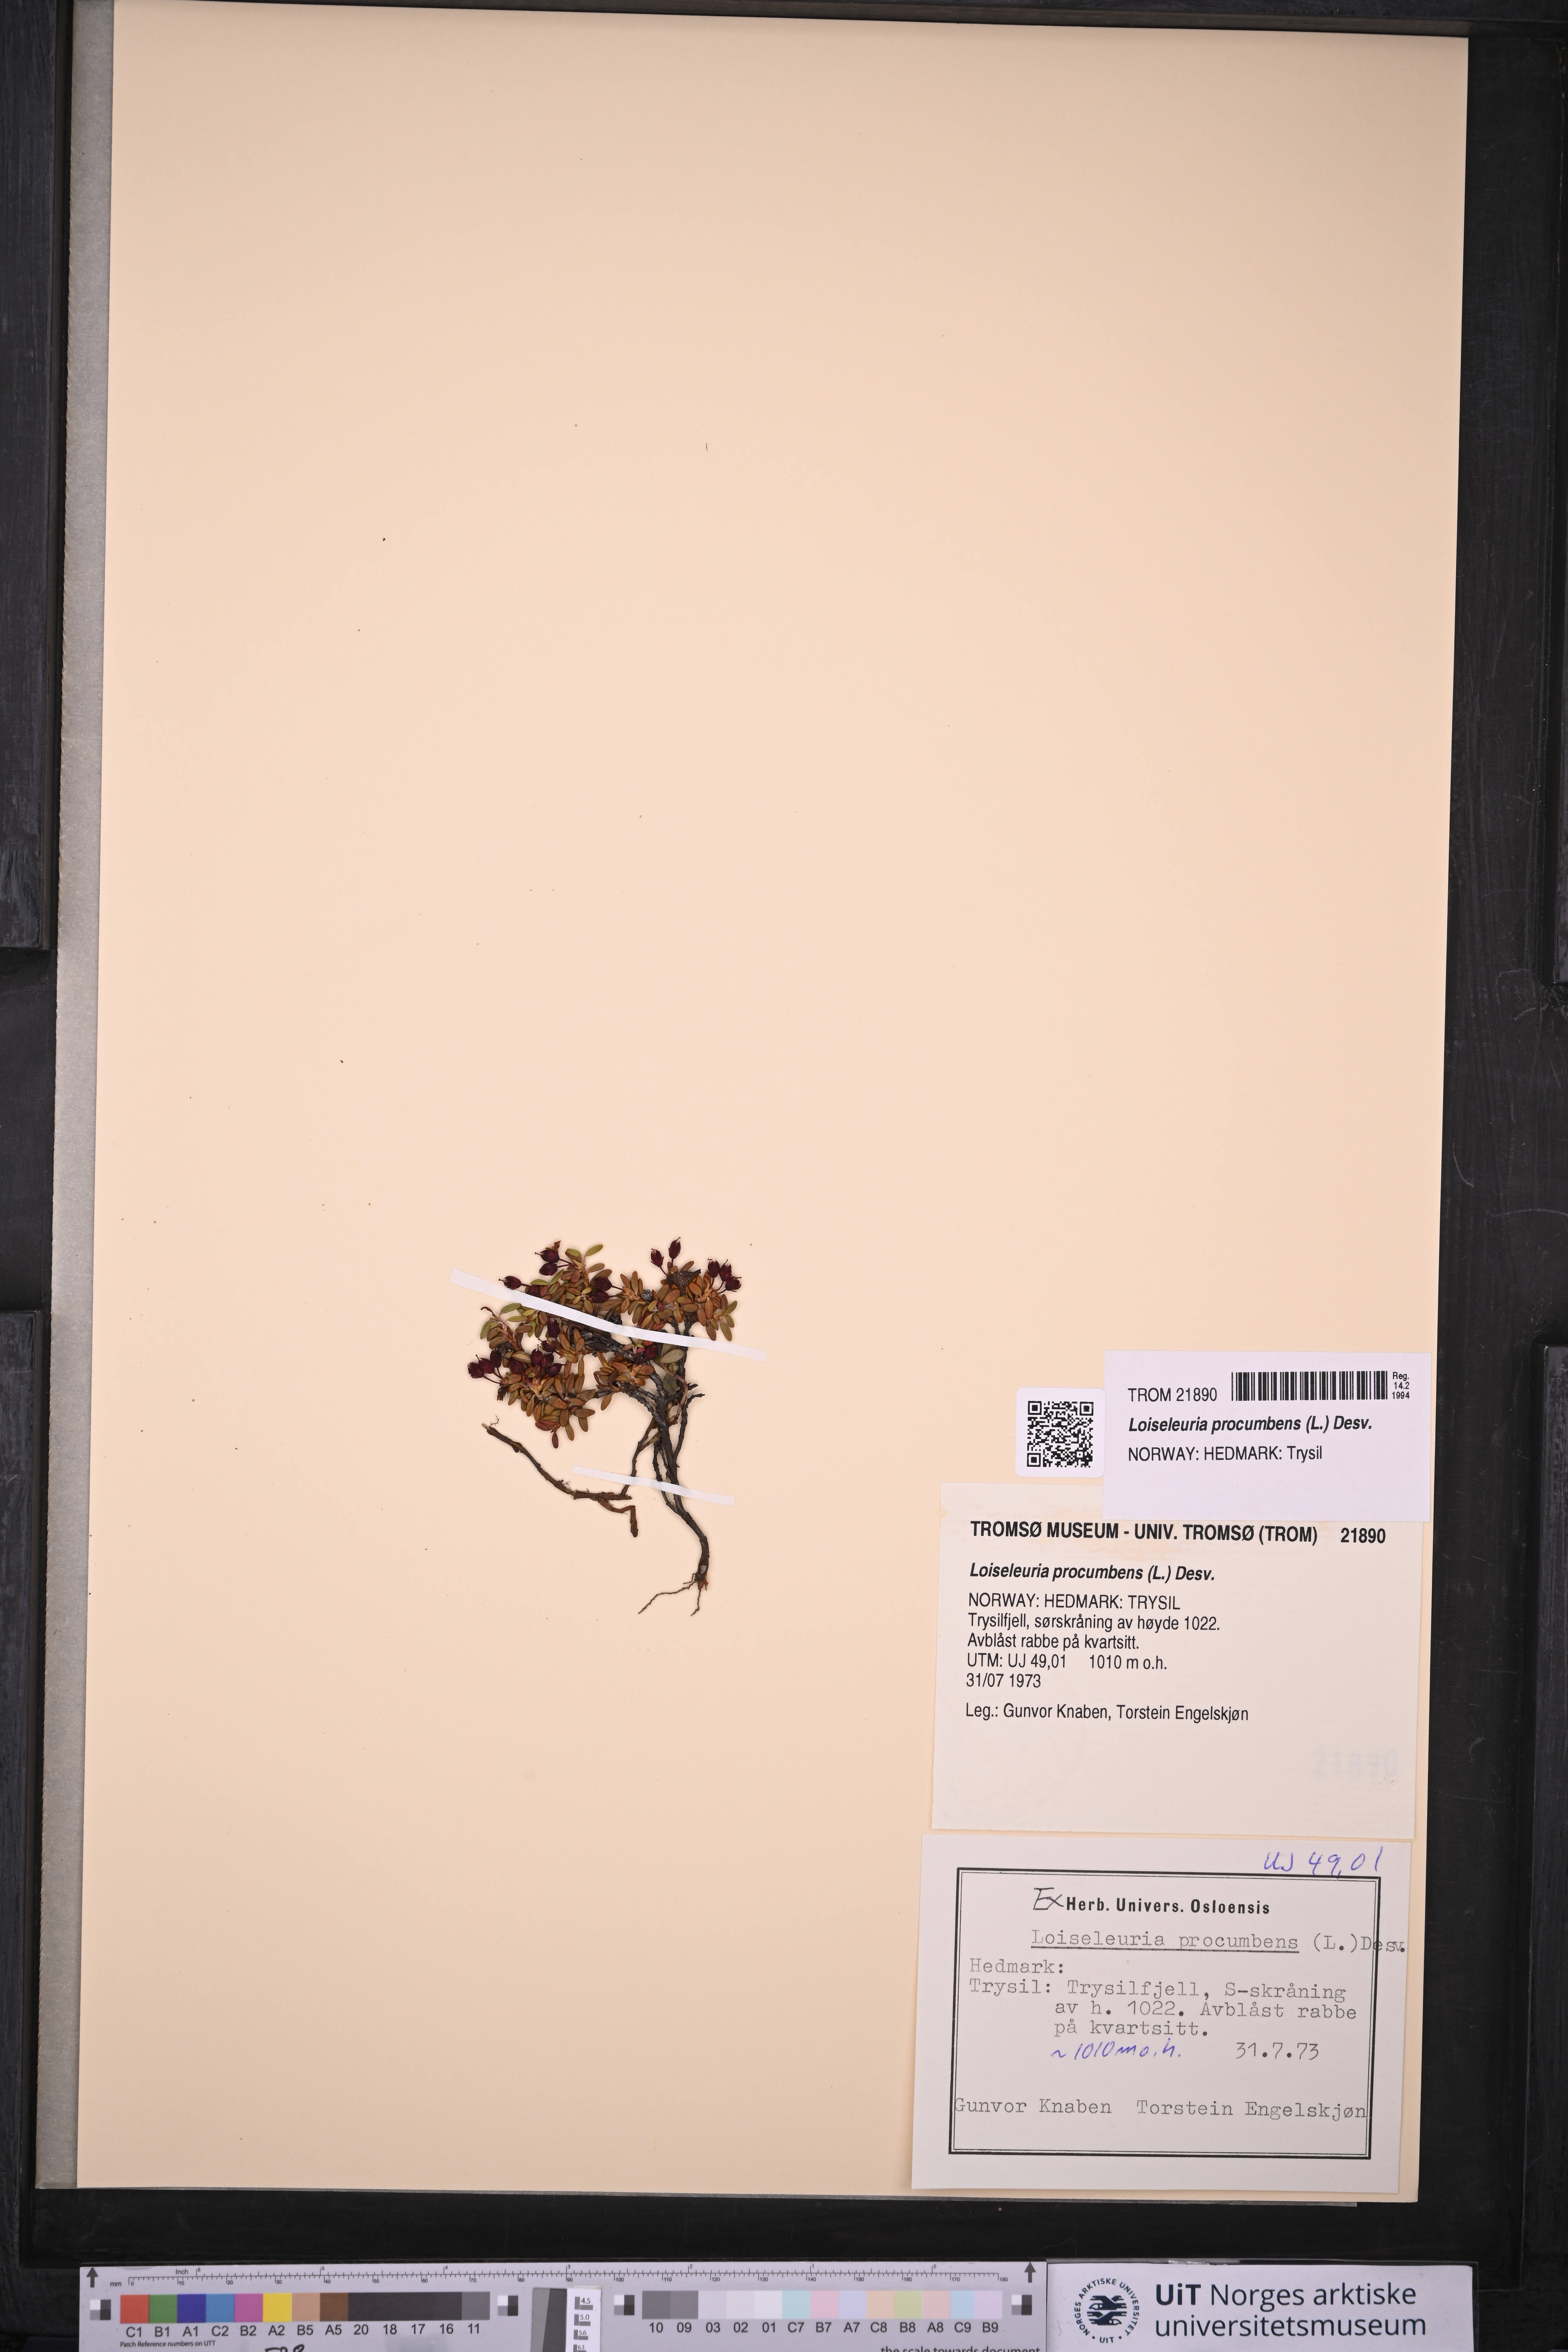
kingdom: Plantae
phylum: Tracheophyta
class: Magnoliopsida
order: Ericales
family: Ericaceae
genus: Kalmia
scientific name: Kalmia procumbens
